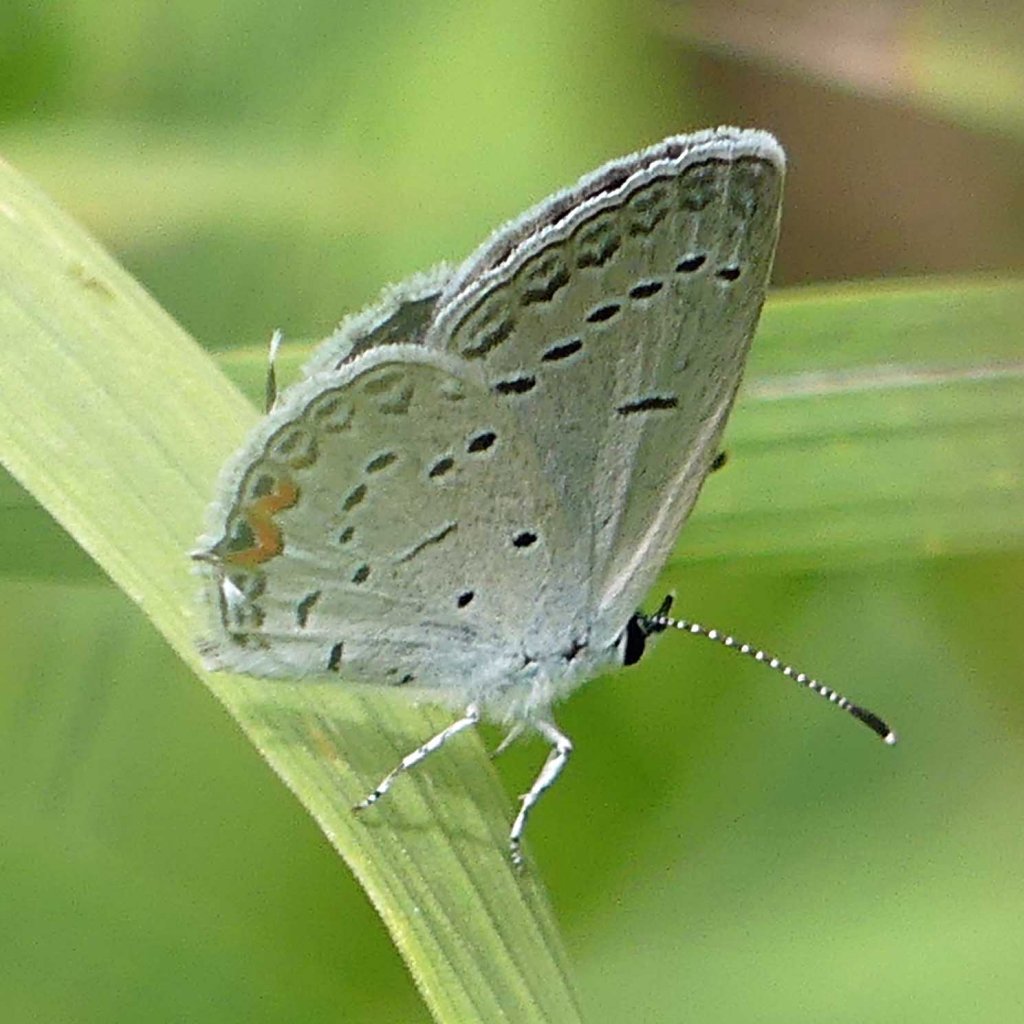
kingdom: Animalia
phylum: Arthropoda
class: Insecta
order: Lepidoptera
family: Lycaenidae
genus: Elkalyce
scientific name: Elkalyce comyntas
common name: Eastern Tailed-Blue
